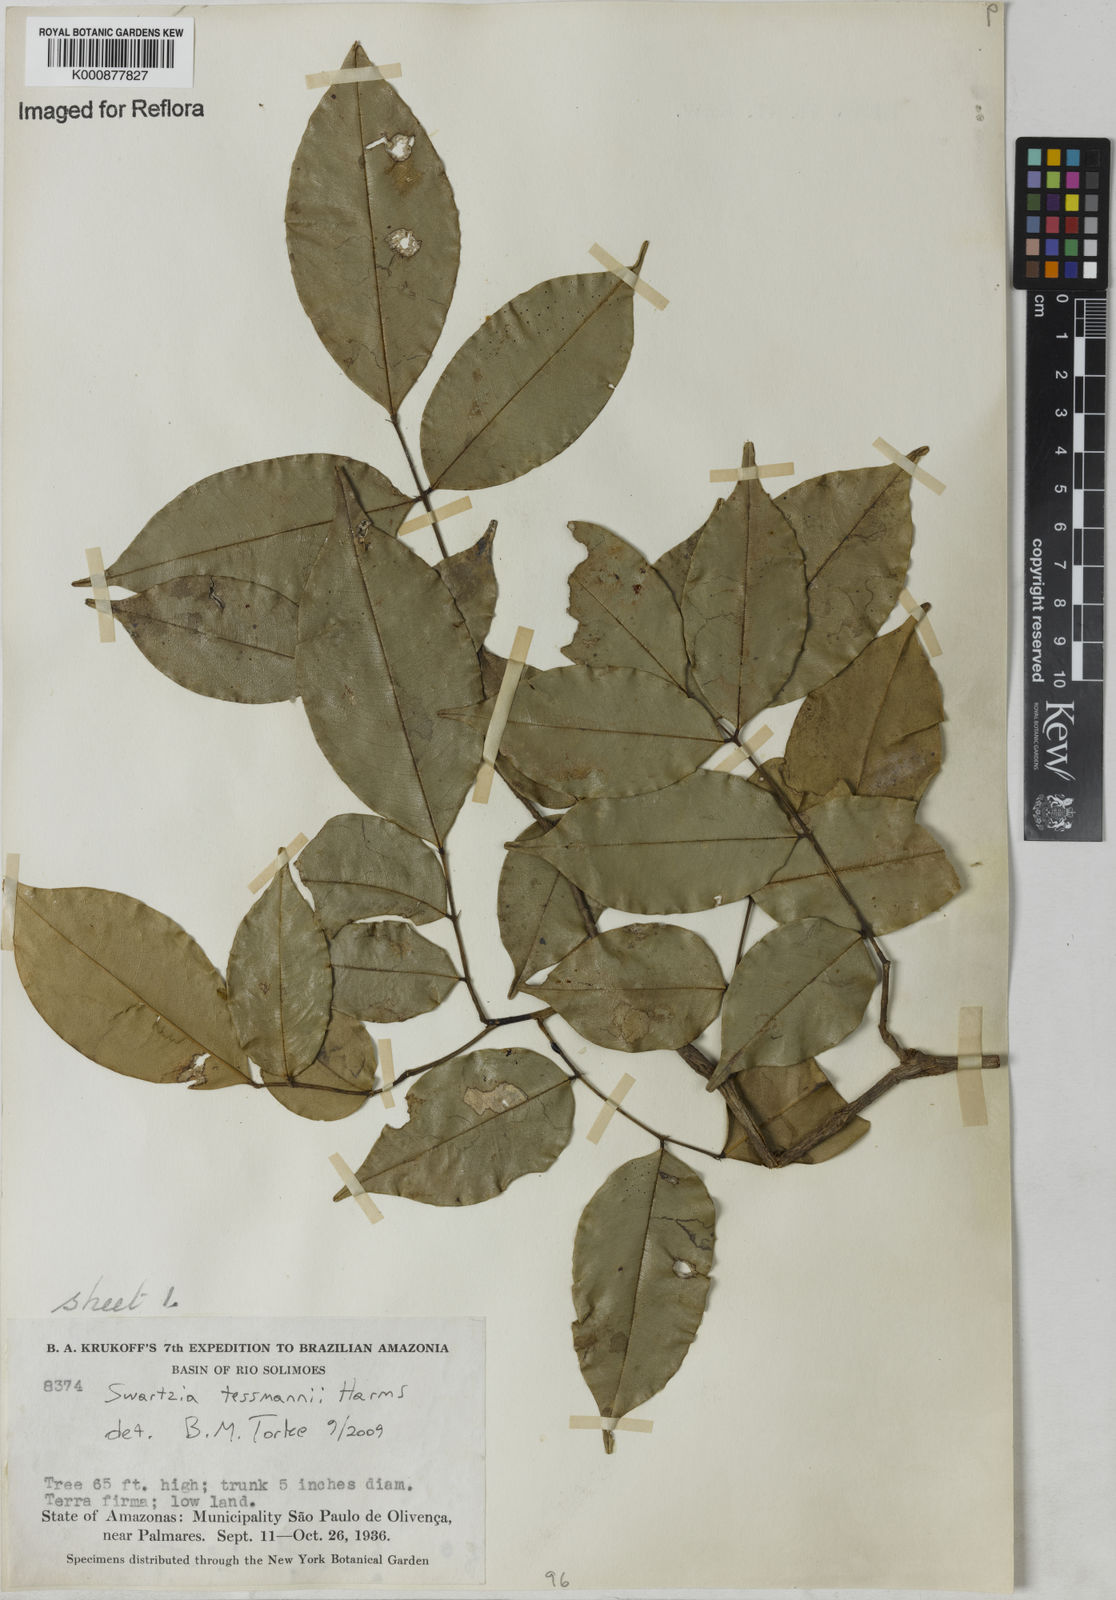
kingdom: Plantae
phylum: Tracheophyta
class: Magnoliopsida
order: Fabales
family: Fabaceae
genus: Swartzia
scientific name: Swartzia tessmannii
